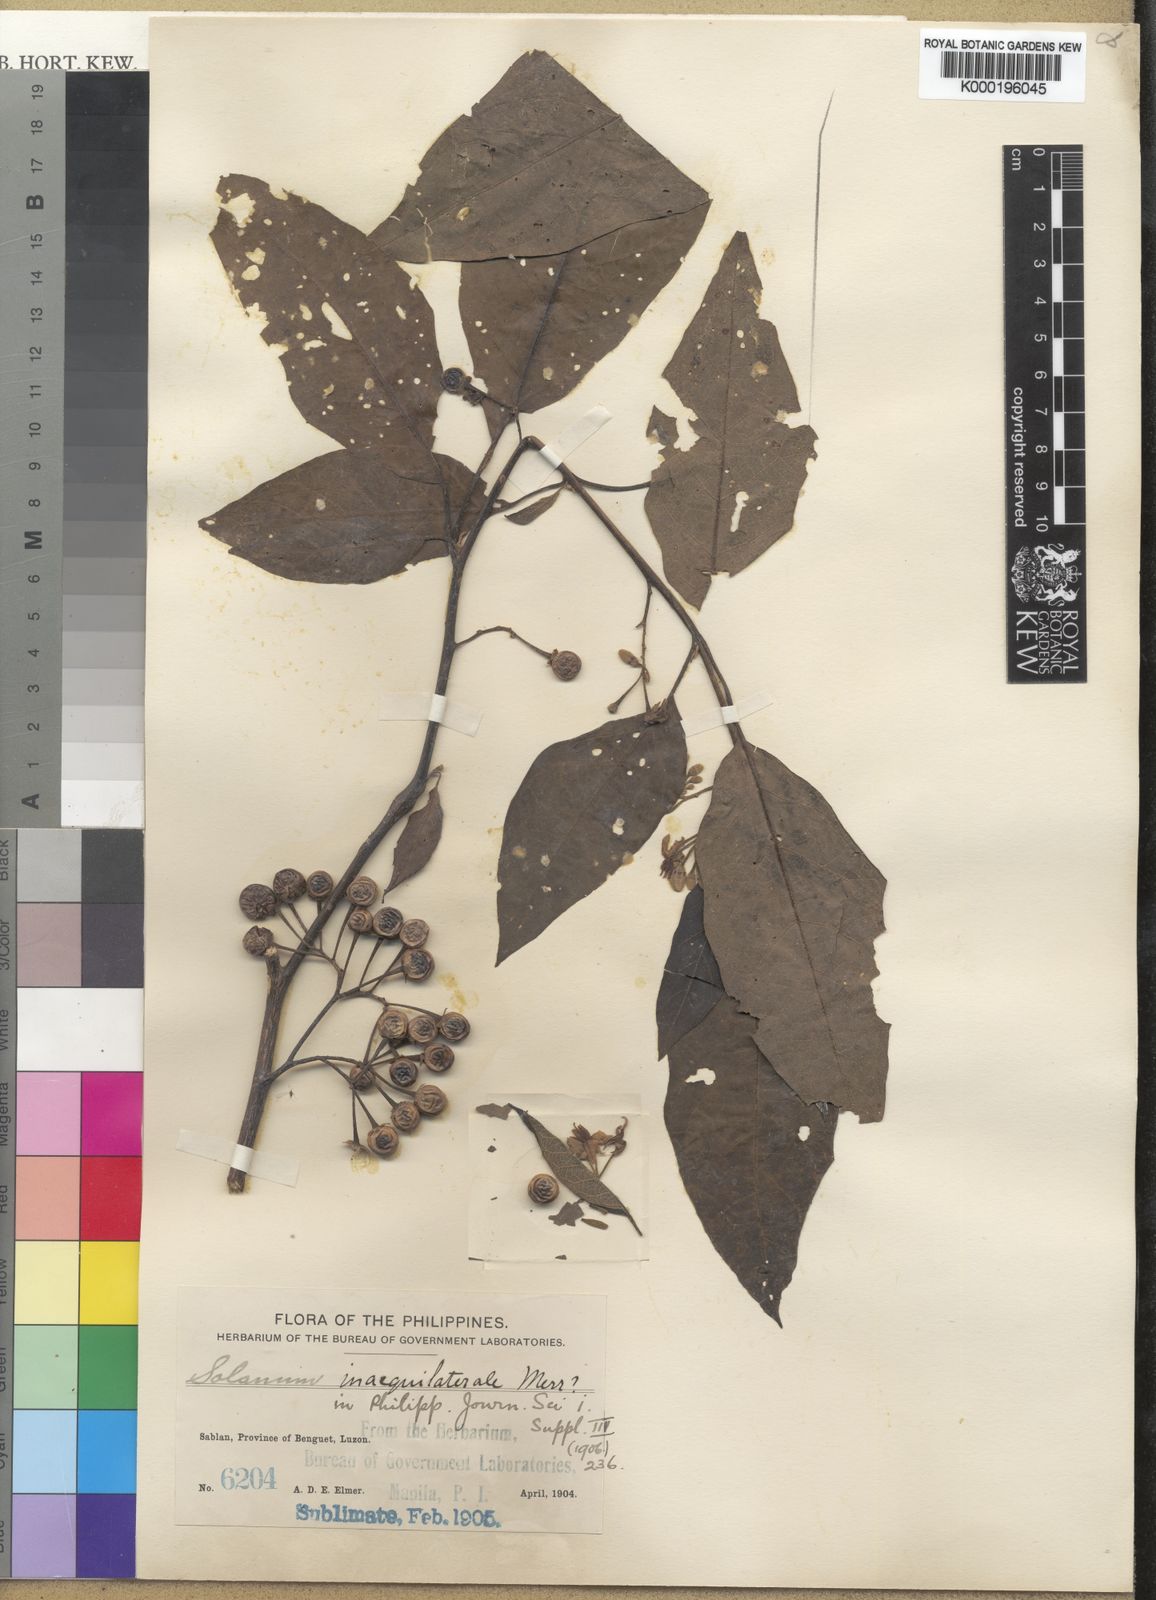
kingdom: Plantae
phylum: Tracheophyta
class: Magnoliopsida
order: Solanales
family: Solanaceae
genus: Solanum
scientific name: Solanum pseudosaponaceum
